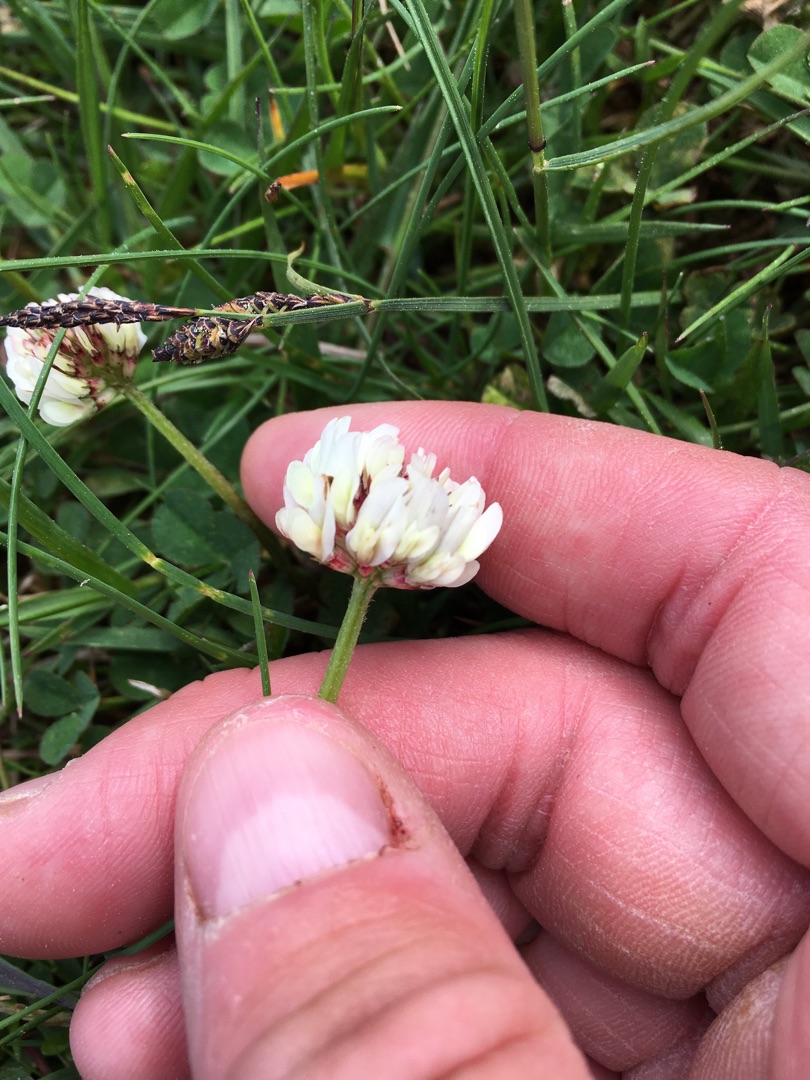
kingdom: Plantae
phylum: Tracheophyta
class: Magnoliopsida
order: Fabales
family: Fabaceae
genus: Trifolium
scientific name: Trifolium repens
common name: Hvid-kløver
